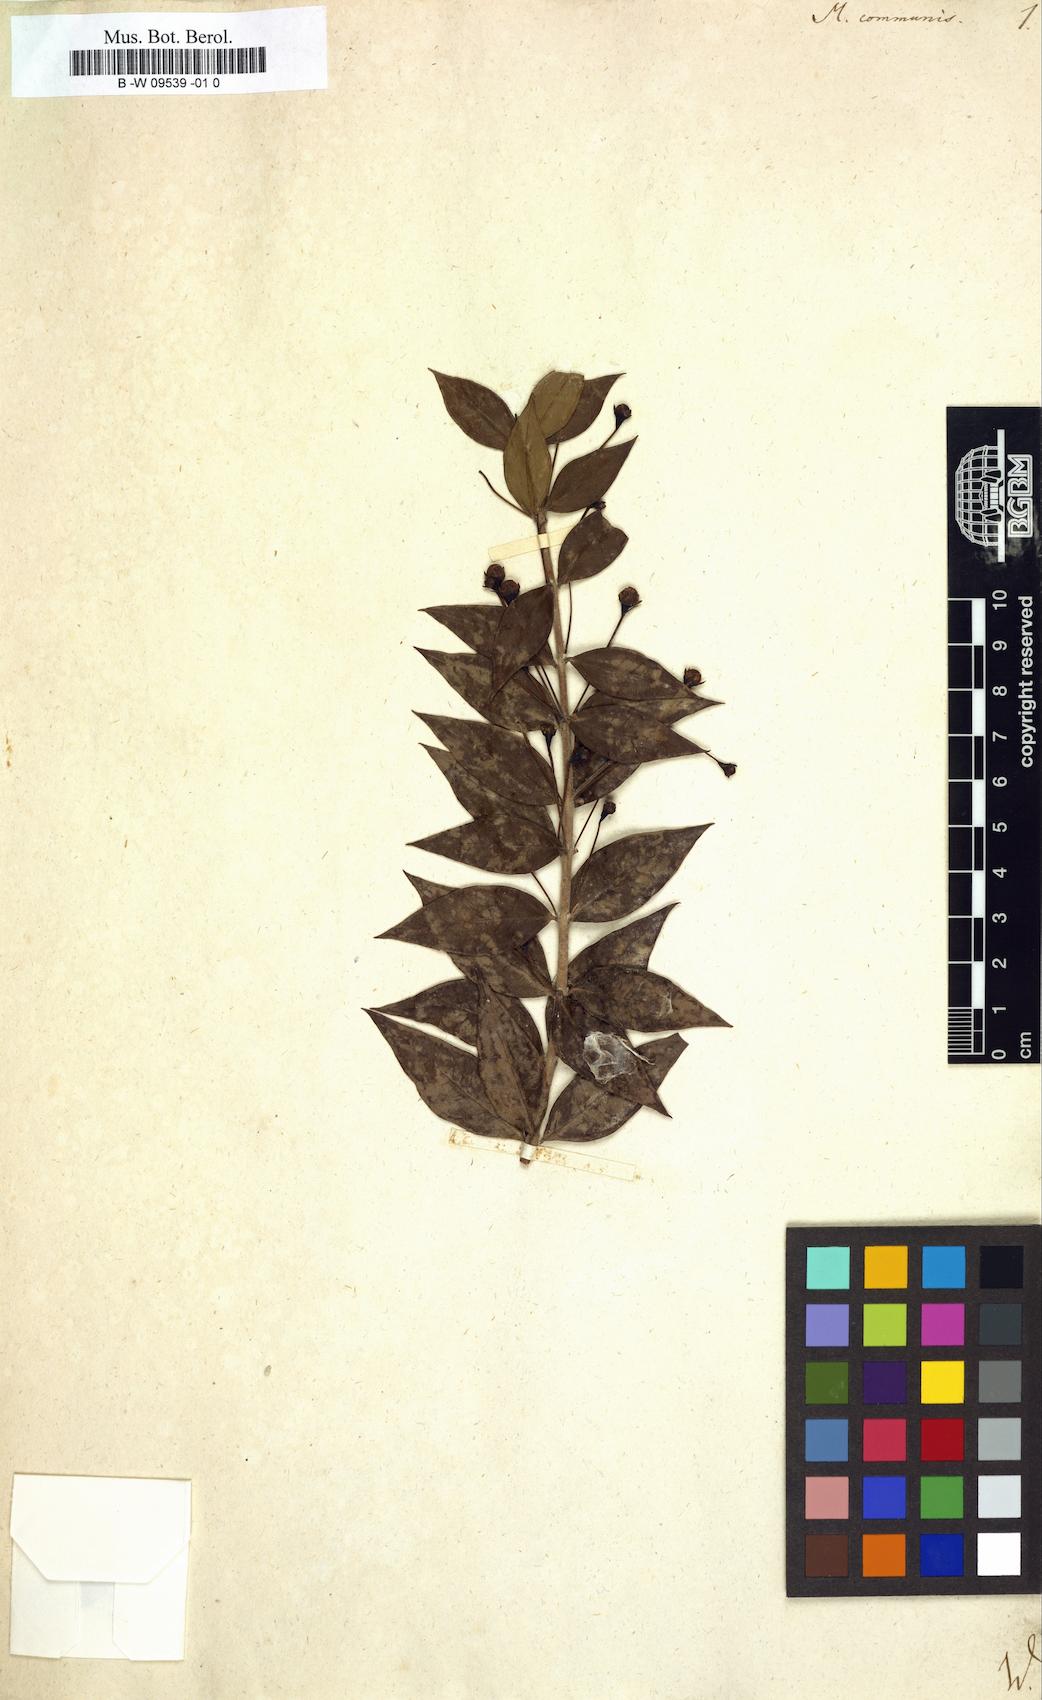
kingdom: Plantae
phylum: Tracheophyta
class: Magnoliopsida
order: Myrtales
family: Myrtaceae
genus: Myrtus
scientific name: Myrtus communis
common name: Myrtle
